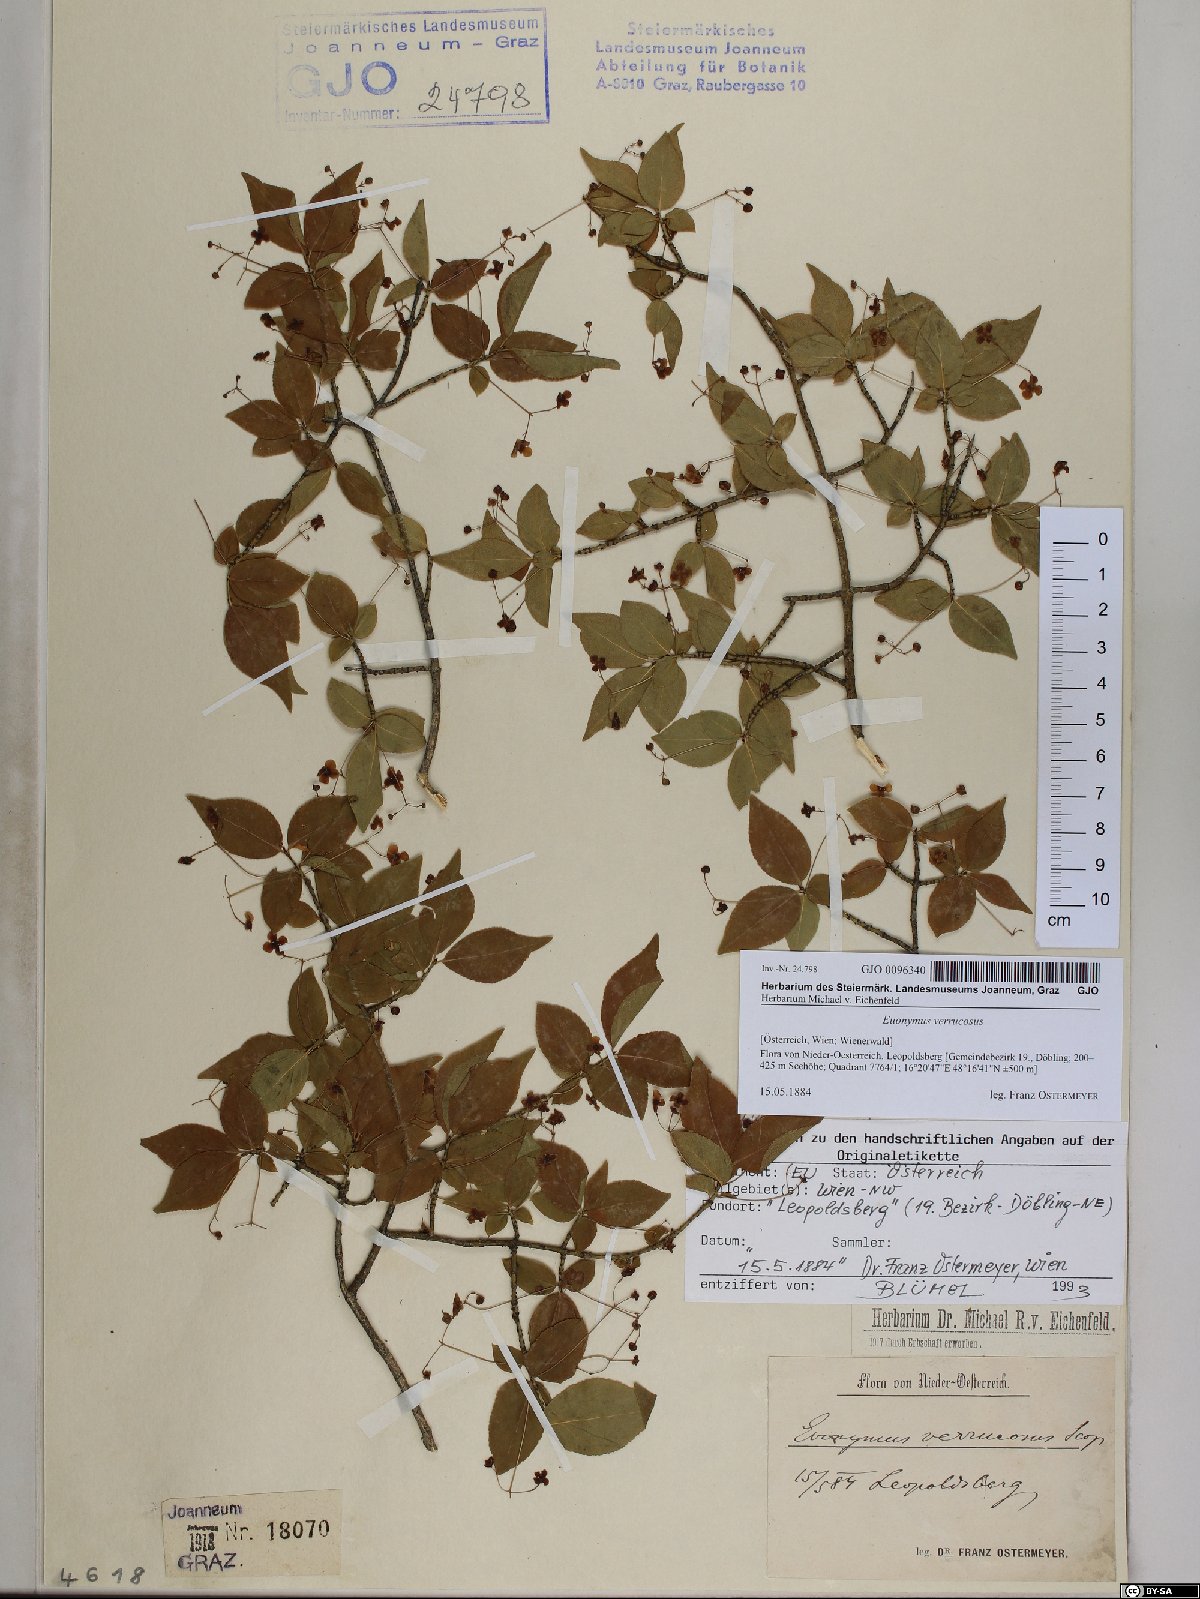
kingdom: Plantae
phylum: Tracheophyta
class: Magnoliopsida
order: Celastrales
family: Celastraceae
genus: Euonymus
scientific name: Euonymus verrucosus
